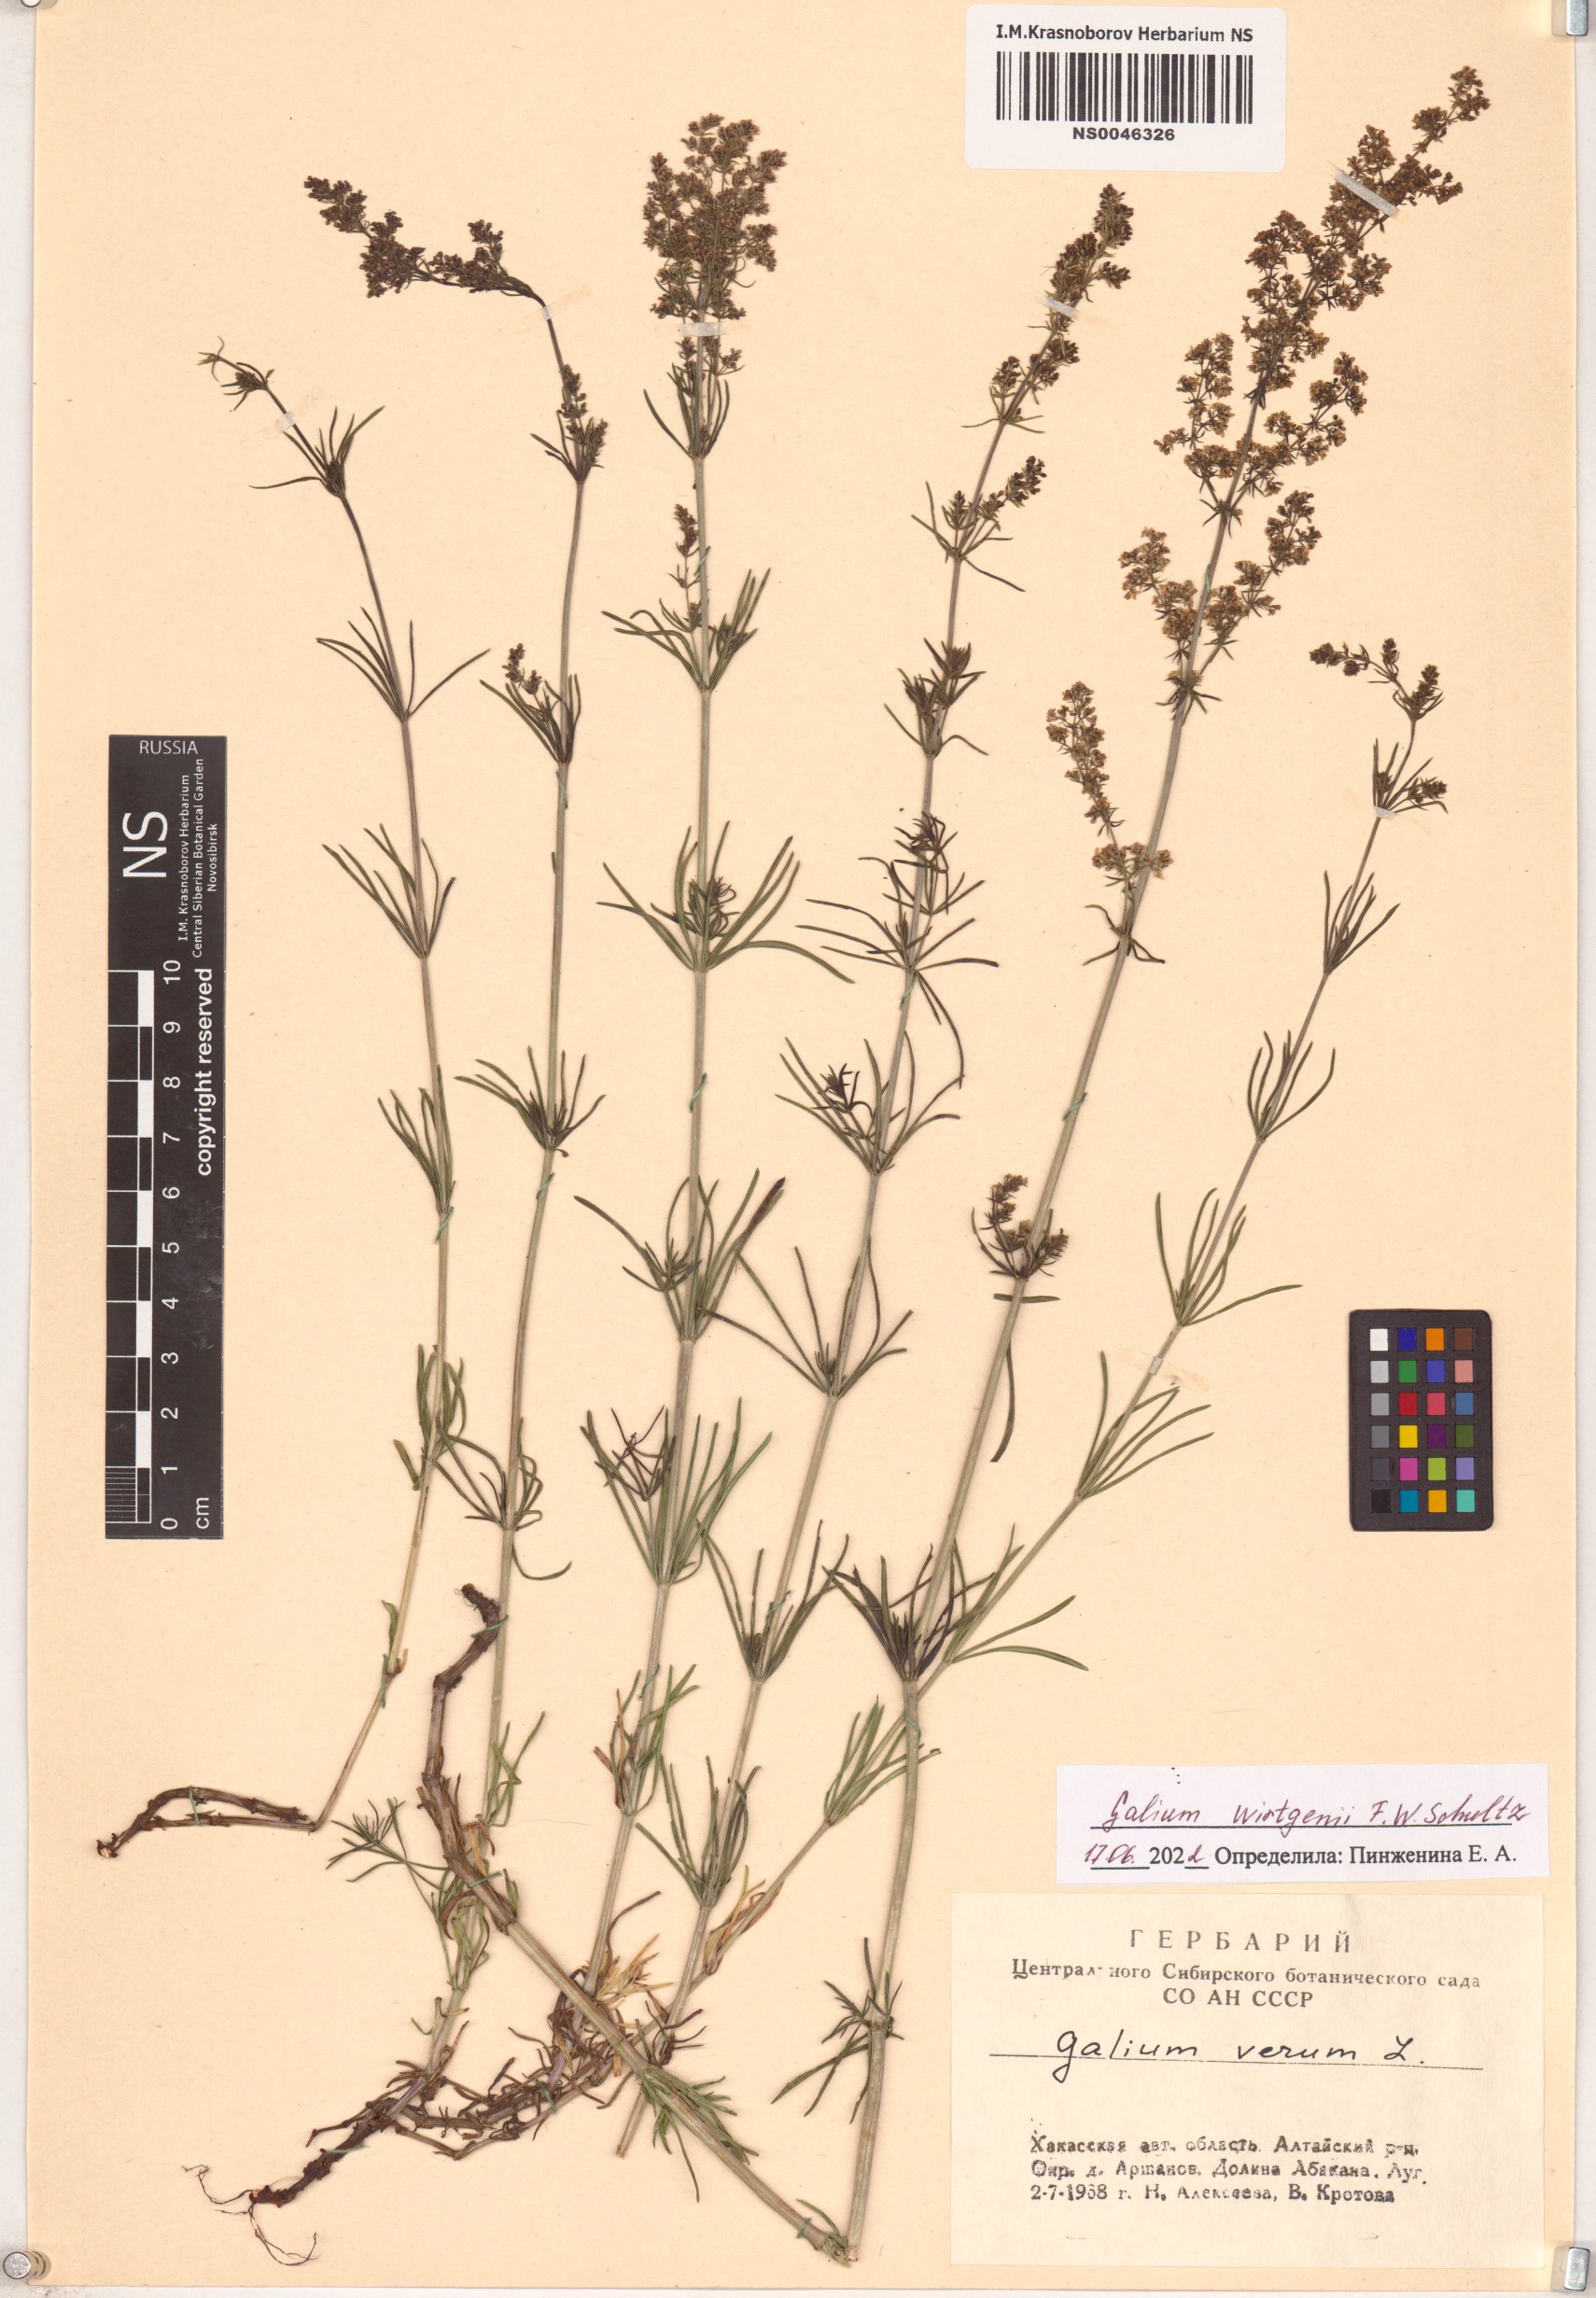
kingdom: Plantae
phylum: Tracheophyta
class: Magnoliopsida
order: Gentianales
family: Rubiaceae
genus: Galium
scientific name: Galium verum
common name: Lady's bedstraw
